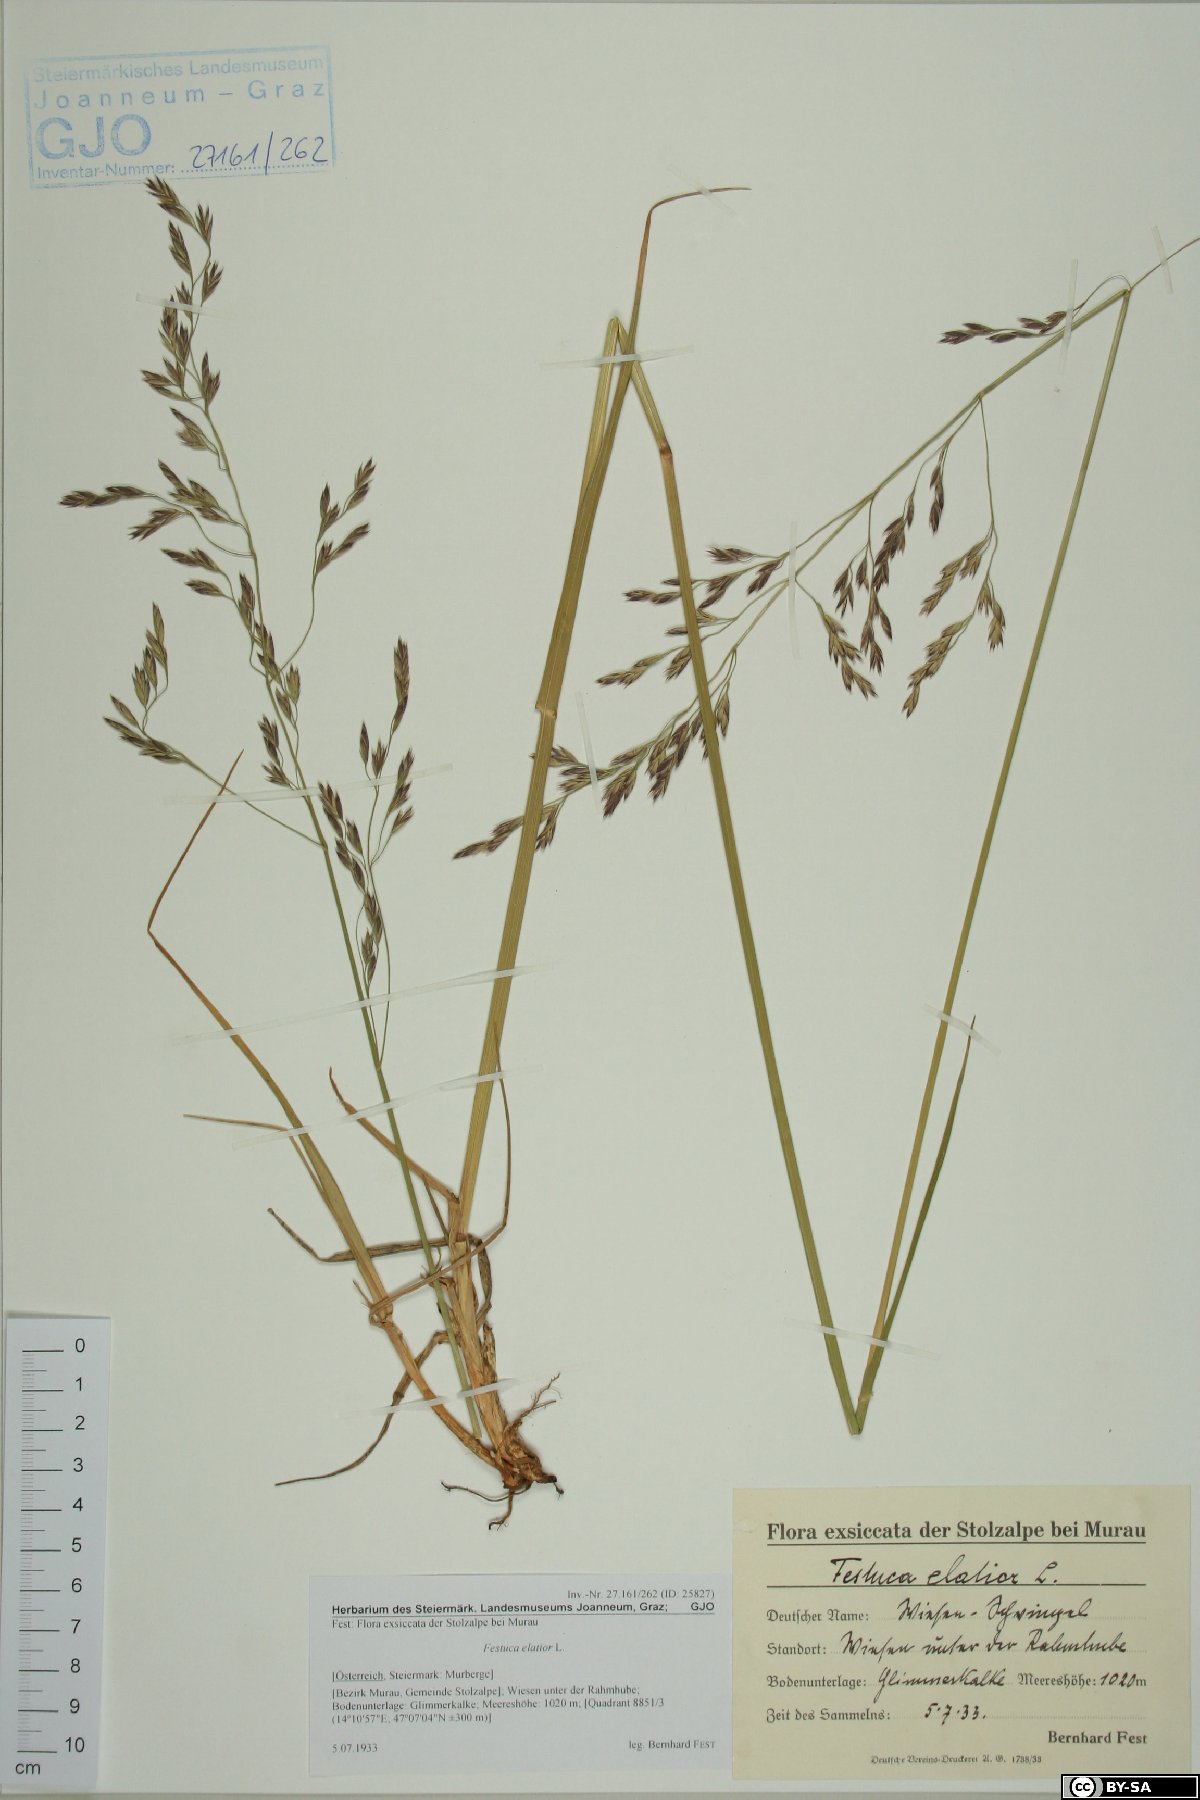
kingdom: Plantae
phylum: Tracheophyta
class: Liliopsida
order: Poales
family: Poaceae
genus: Lolium
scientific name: Lolium arundinaceum
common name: Reed fescue
